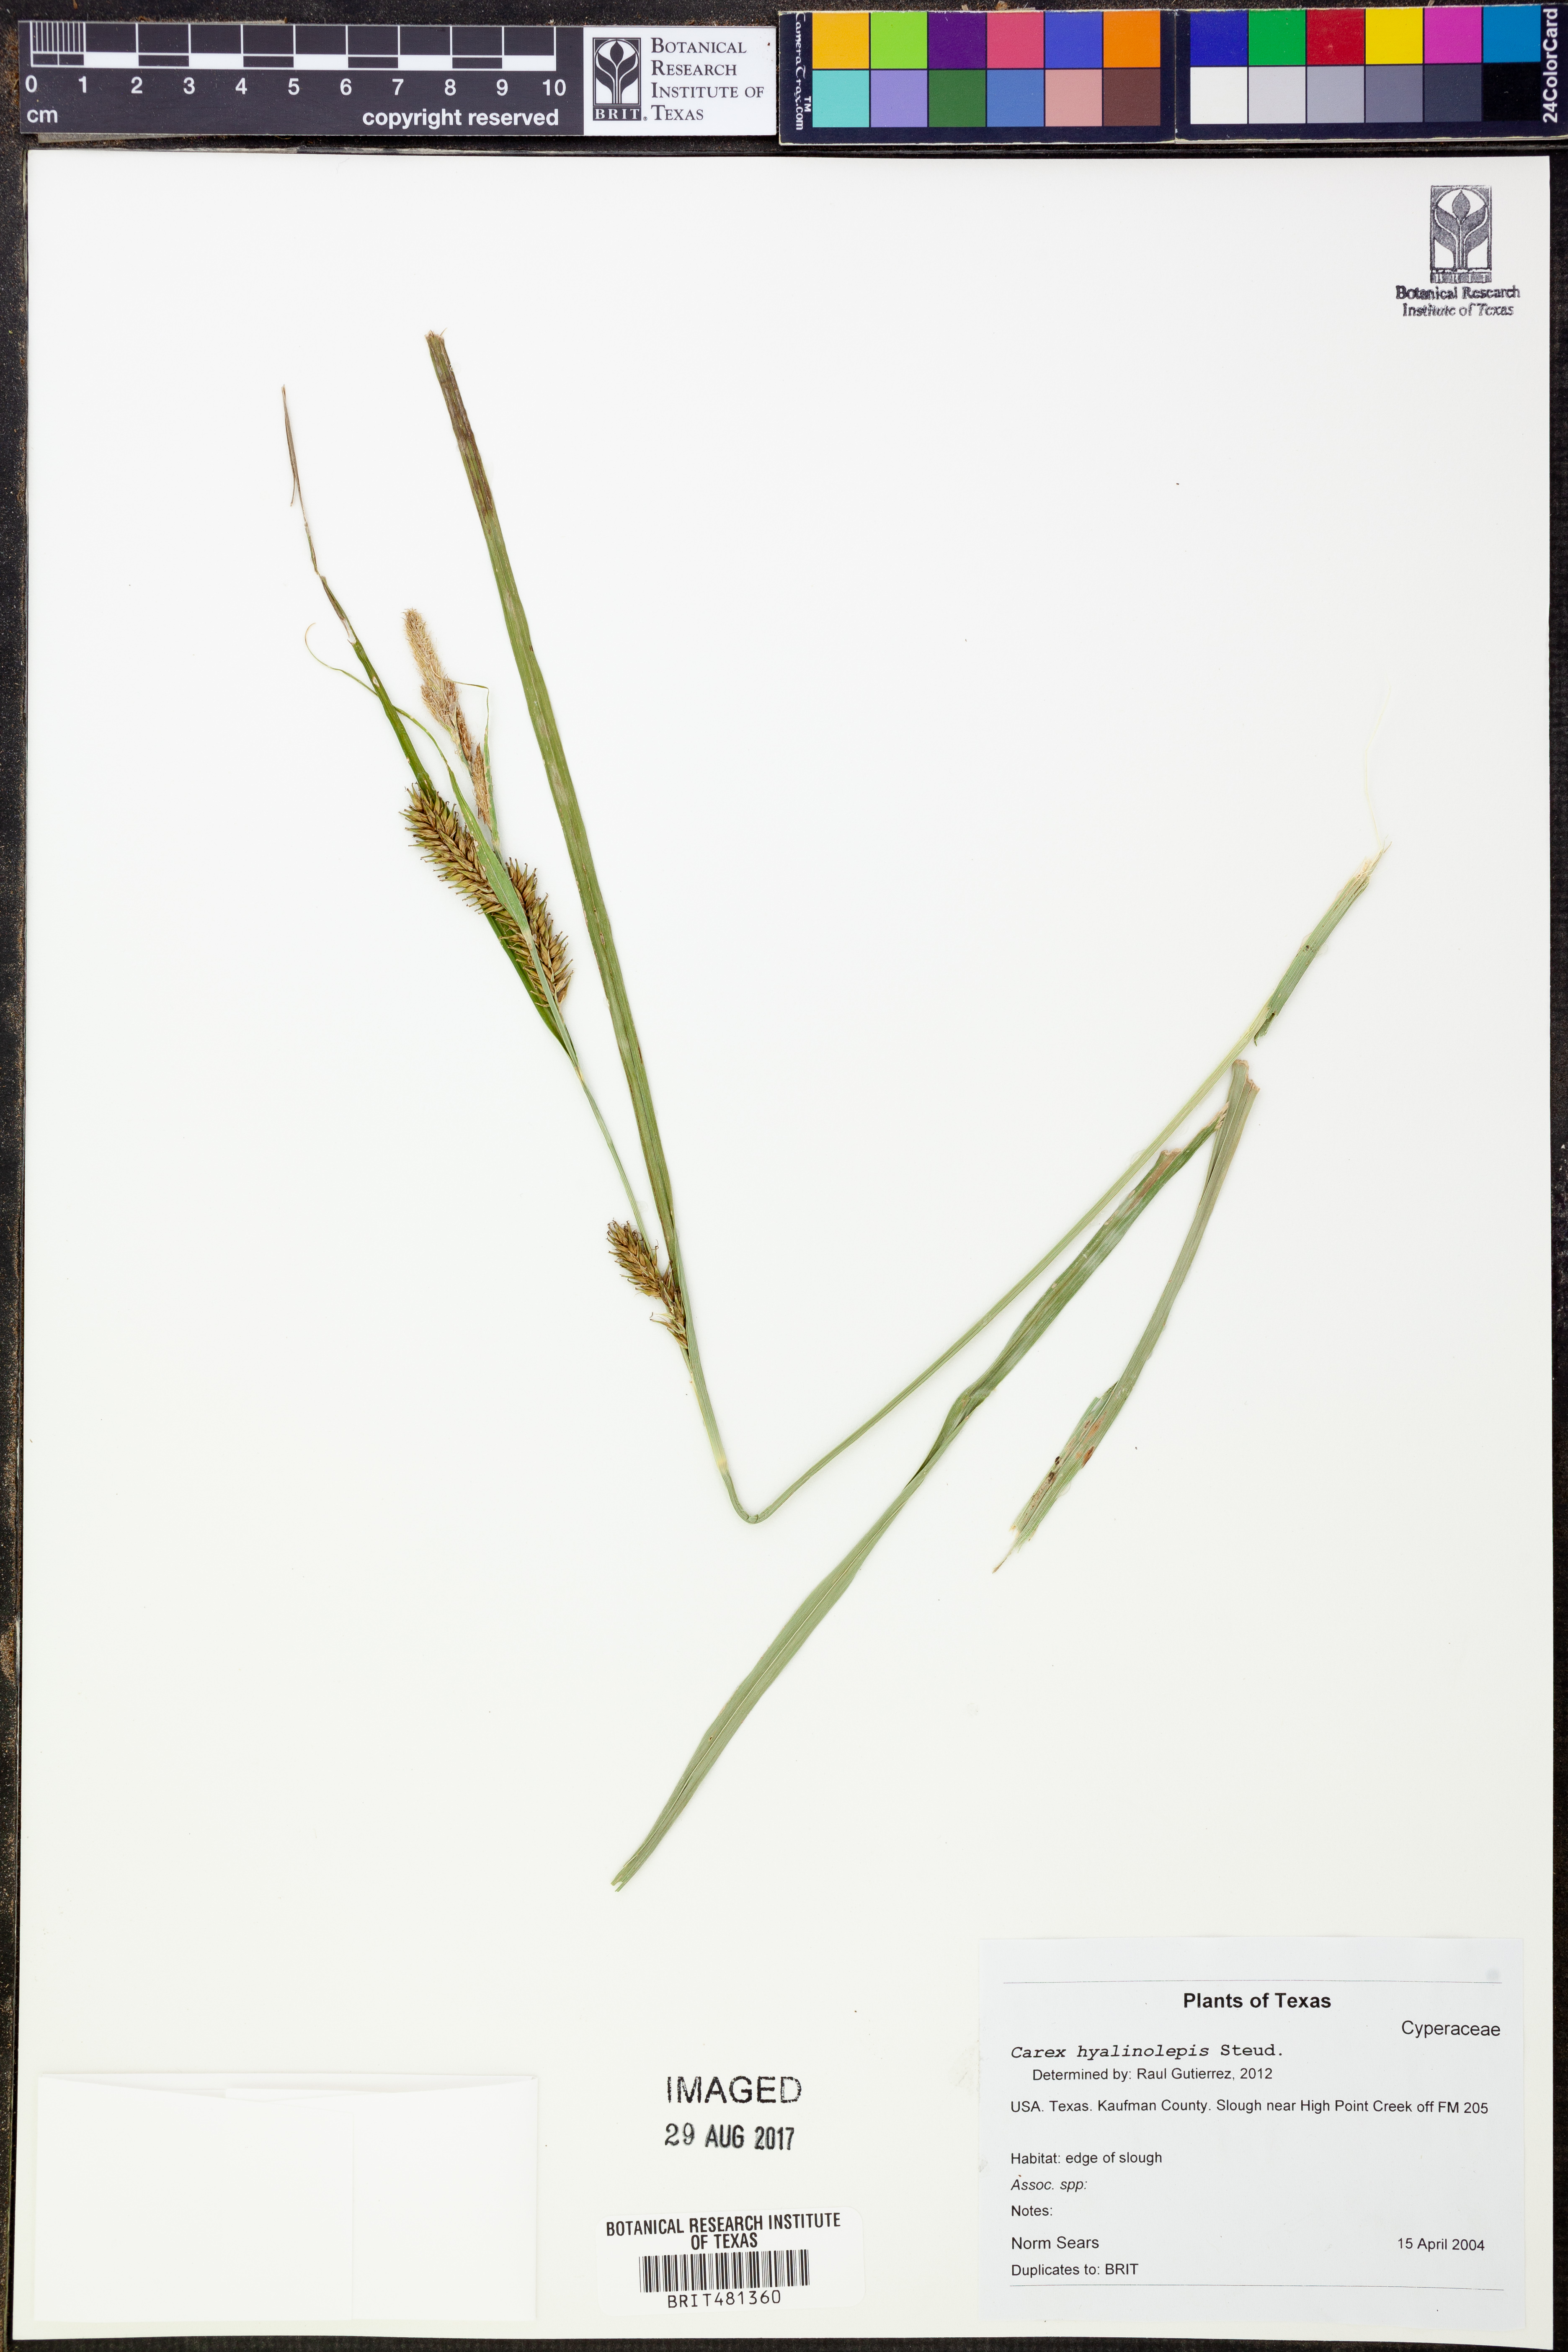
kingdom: Plantae
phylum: Tracheophyta
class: Liliopsida
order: Poales
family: Cyperaceae
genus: Carex
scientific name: Carex hyalinolepis
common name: Shoreline sedge
